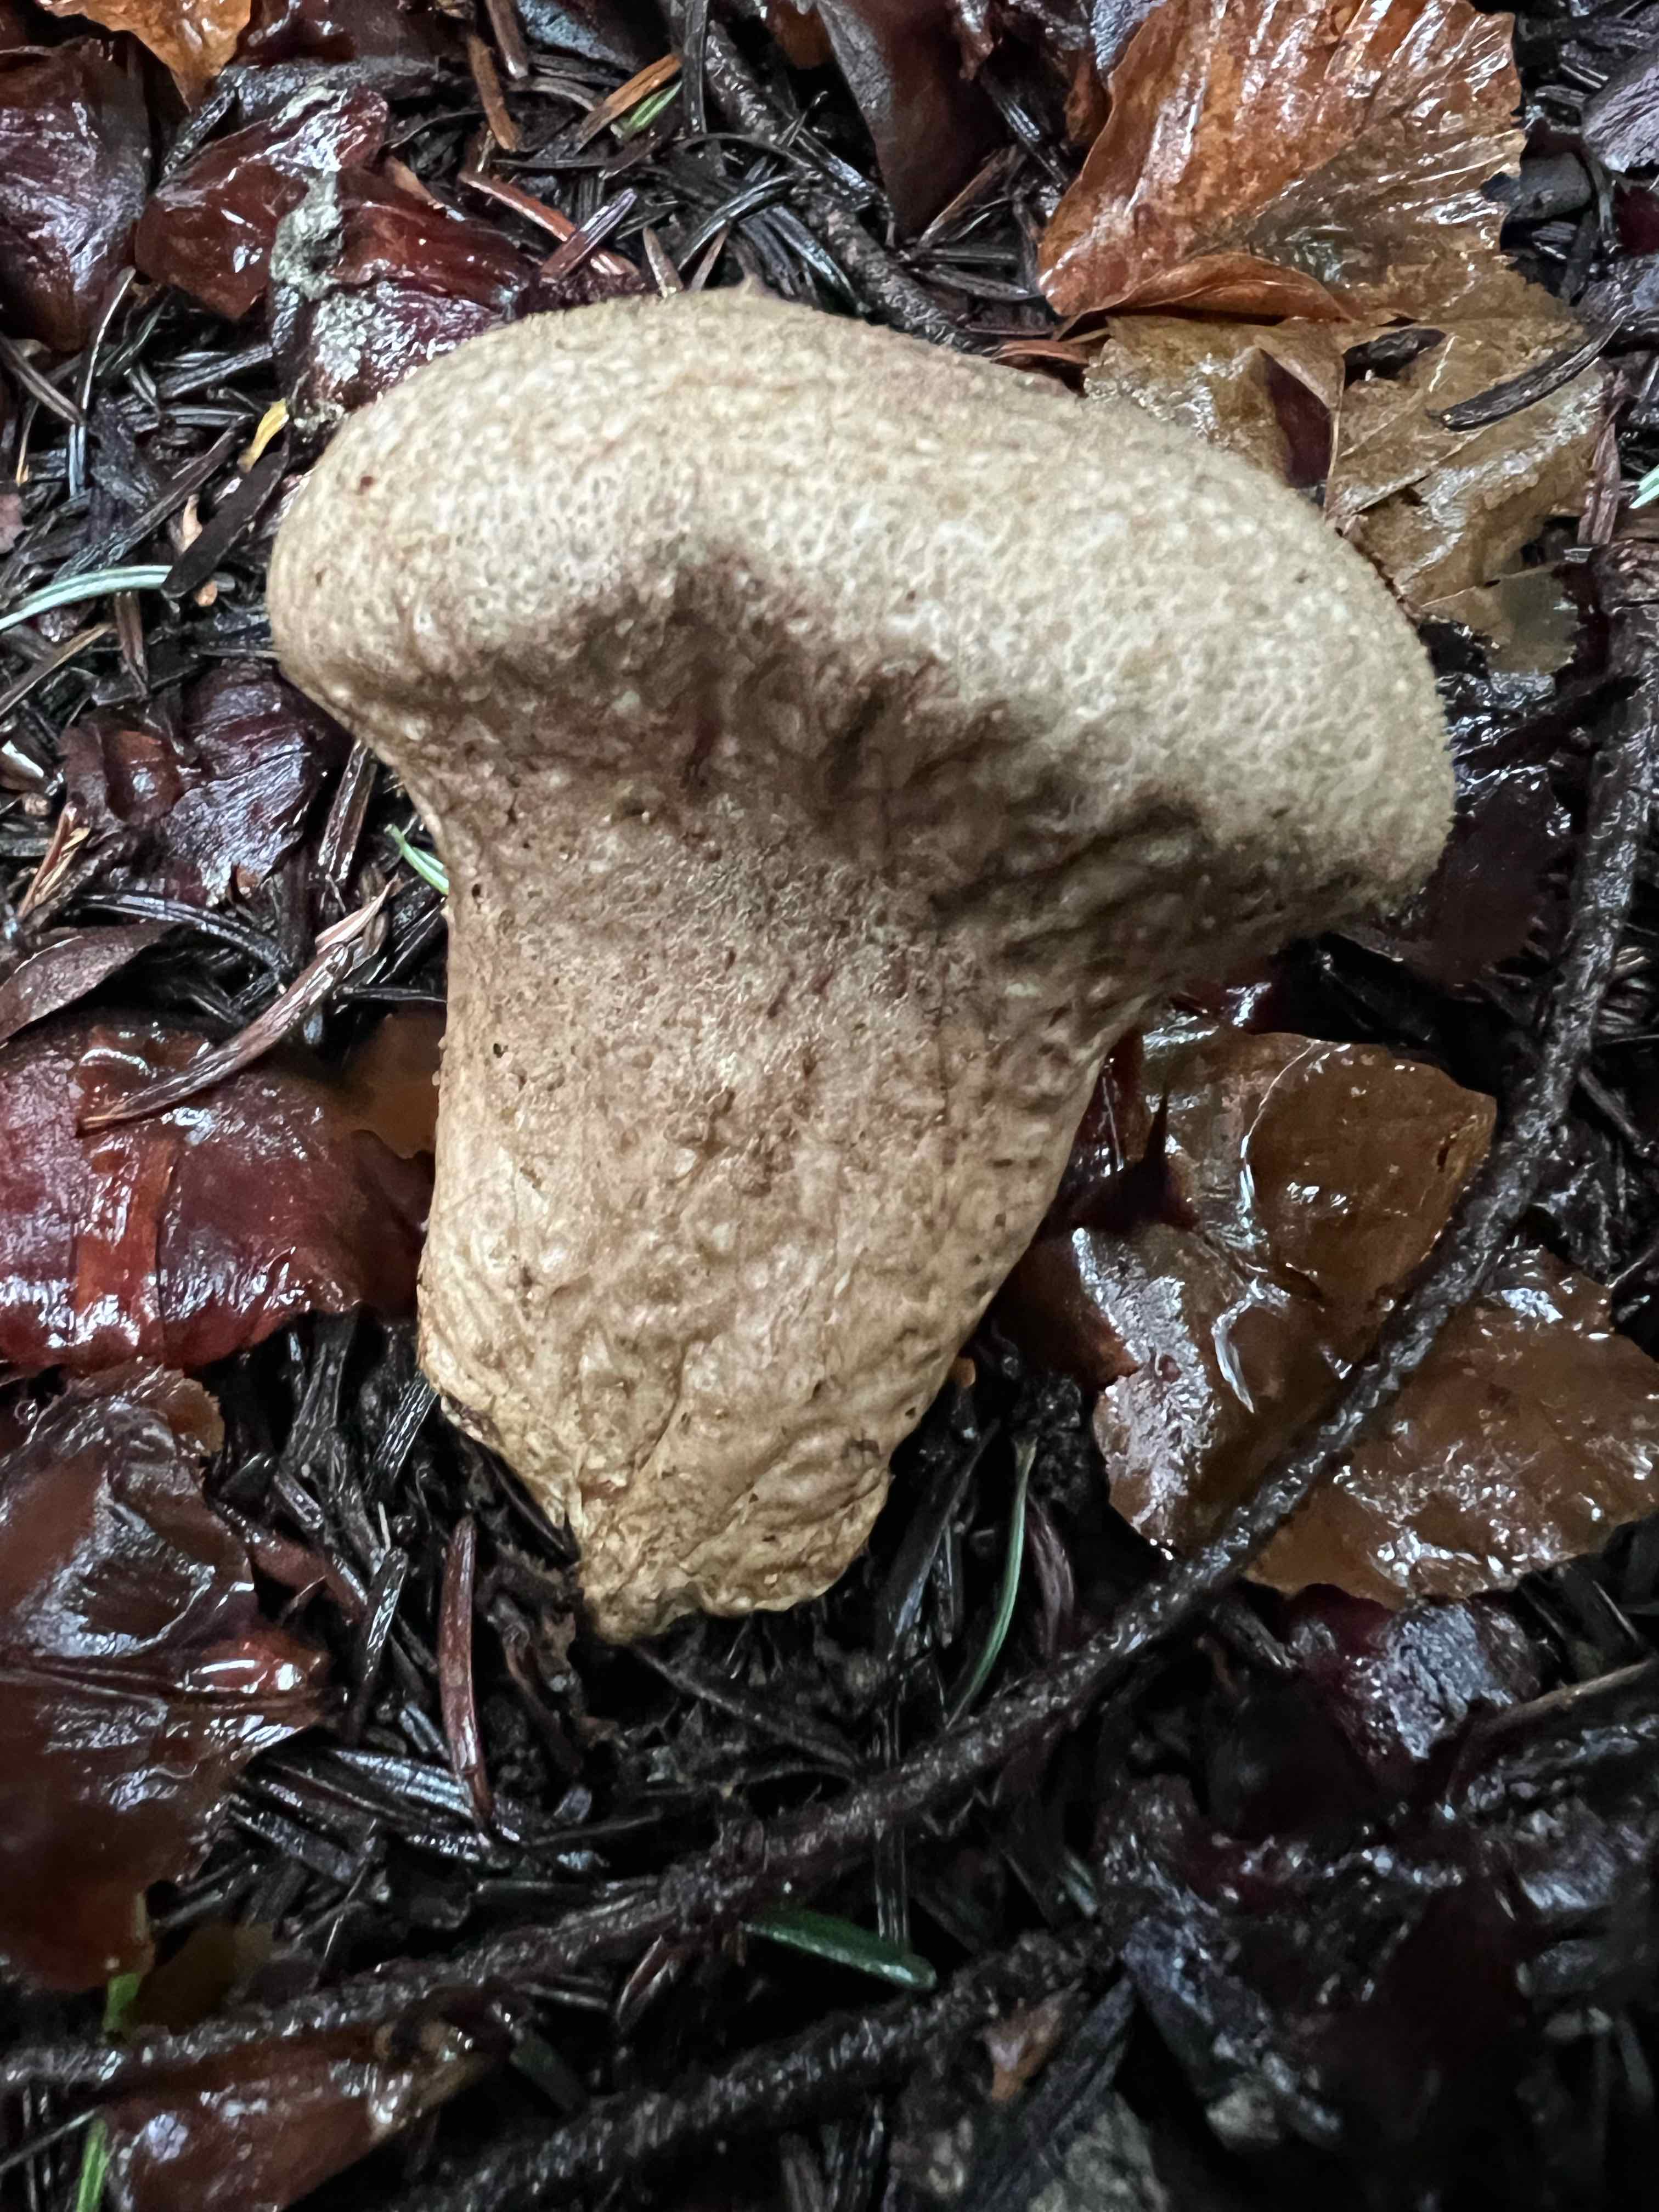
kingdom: Fungi
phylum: Basidiomycota
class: Agaricomycetes
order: Agaricales
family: Lycoperdaceae
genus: Lycoperdon
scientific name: Lycoperdon perlatum
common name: krystal-støvbold
